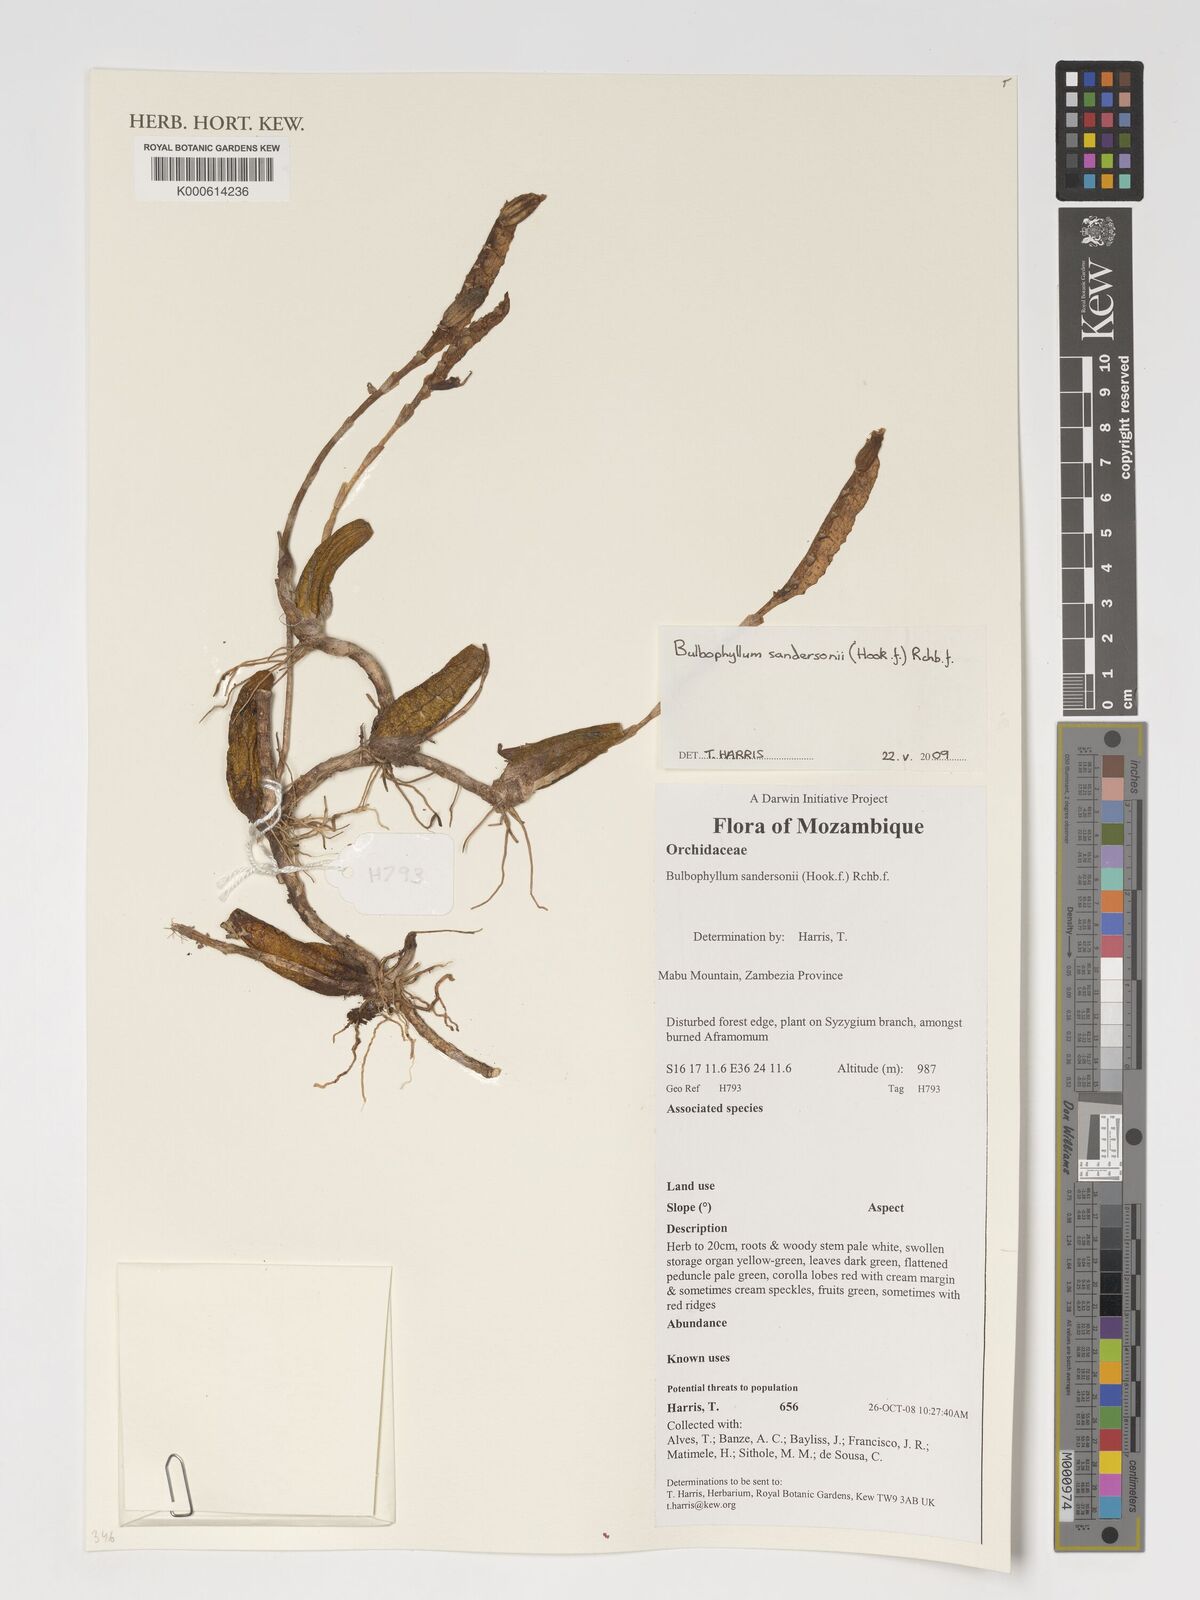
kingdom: Plantae
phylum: Tracheophyta
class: Liliopsida
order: Asparagales
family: Orchidaceae
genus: Bulbophyllum
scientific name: Bulbophyllum sandersonii
